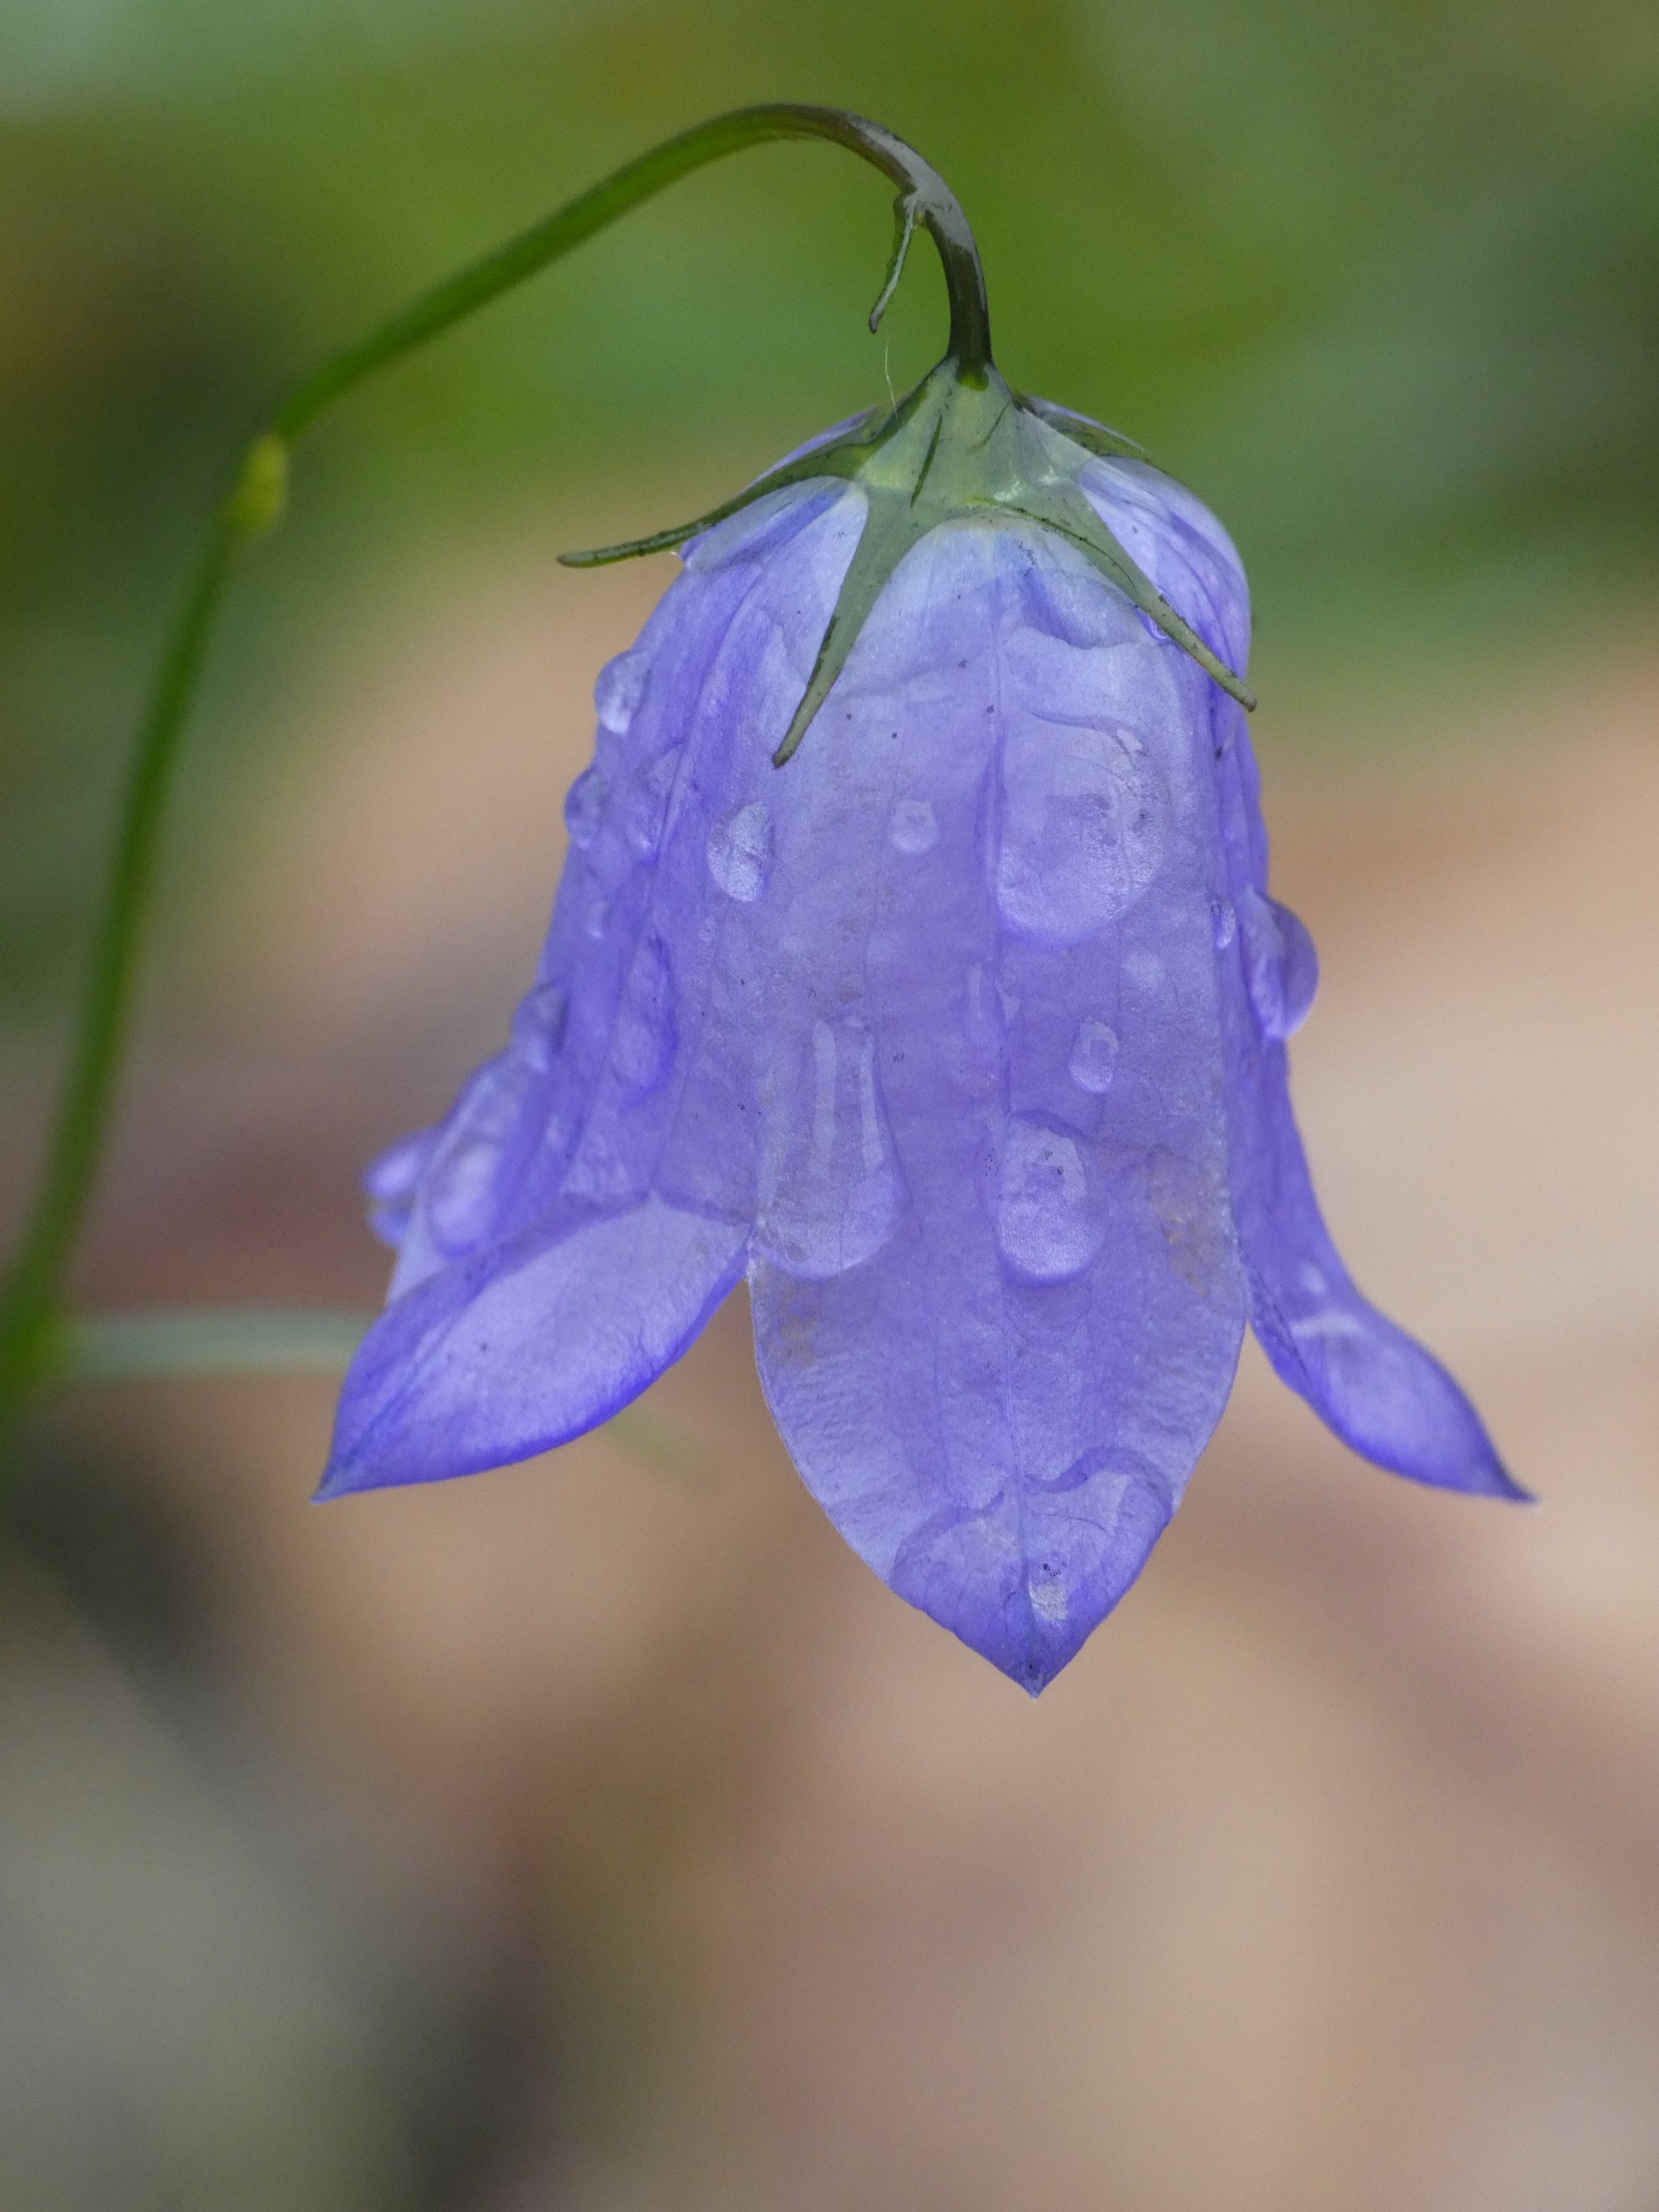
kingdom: Plantae
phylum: Tracheophyta
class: Magnoliopsida
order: Asterales
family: Campanulaceae
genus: Campanula
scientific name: Campanula rotundifolia
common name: Liden klokke
